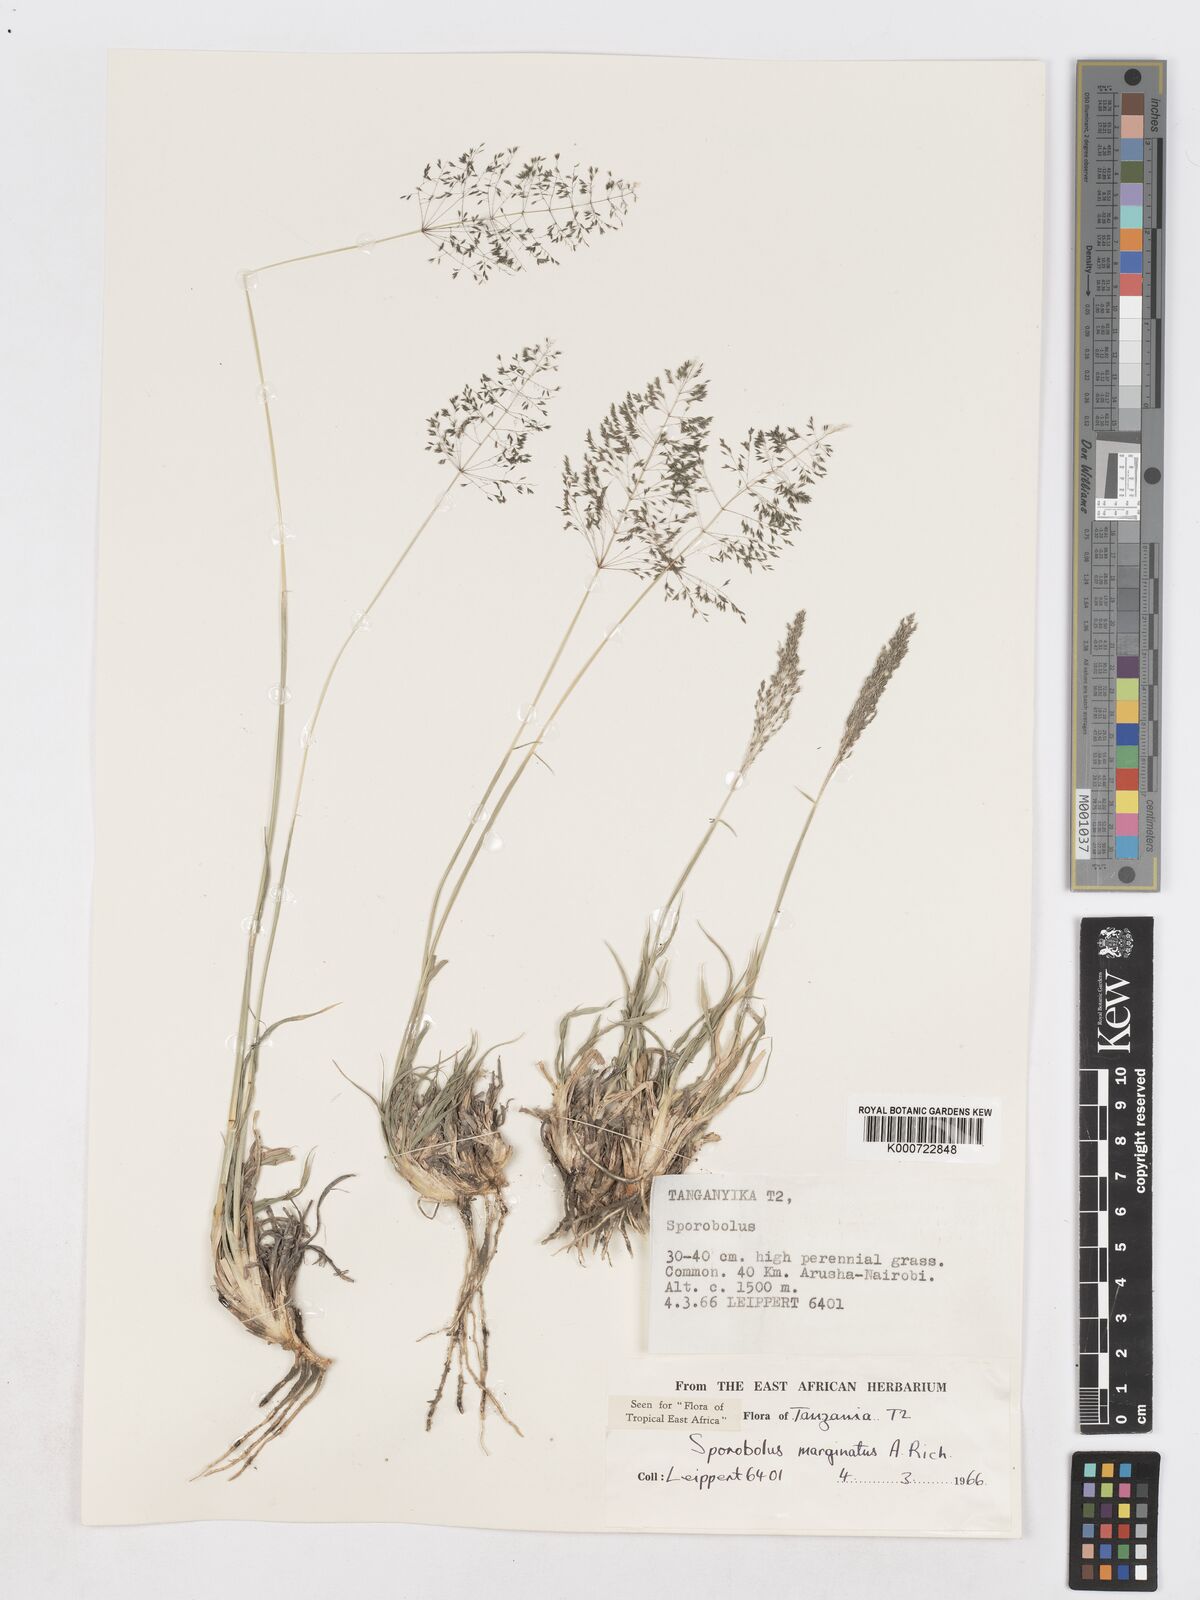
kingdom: Plantae
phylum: Tracheophyta
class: Liliopsida
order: Poales
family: Poaceae
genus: Sporobolus
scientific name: Sporobolus ioclados
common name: Pan dropseed
